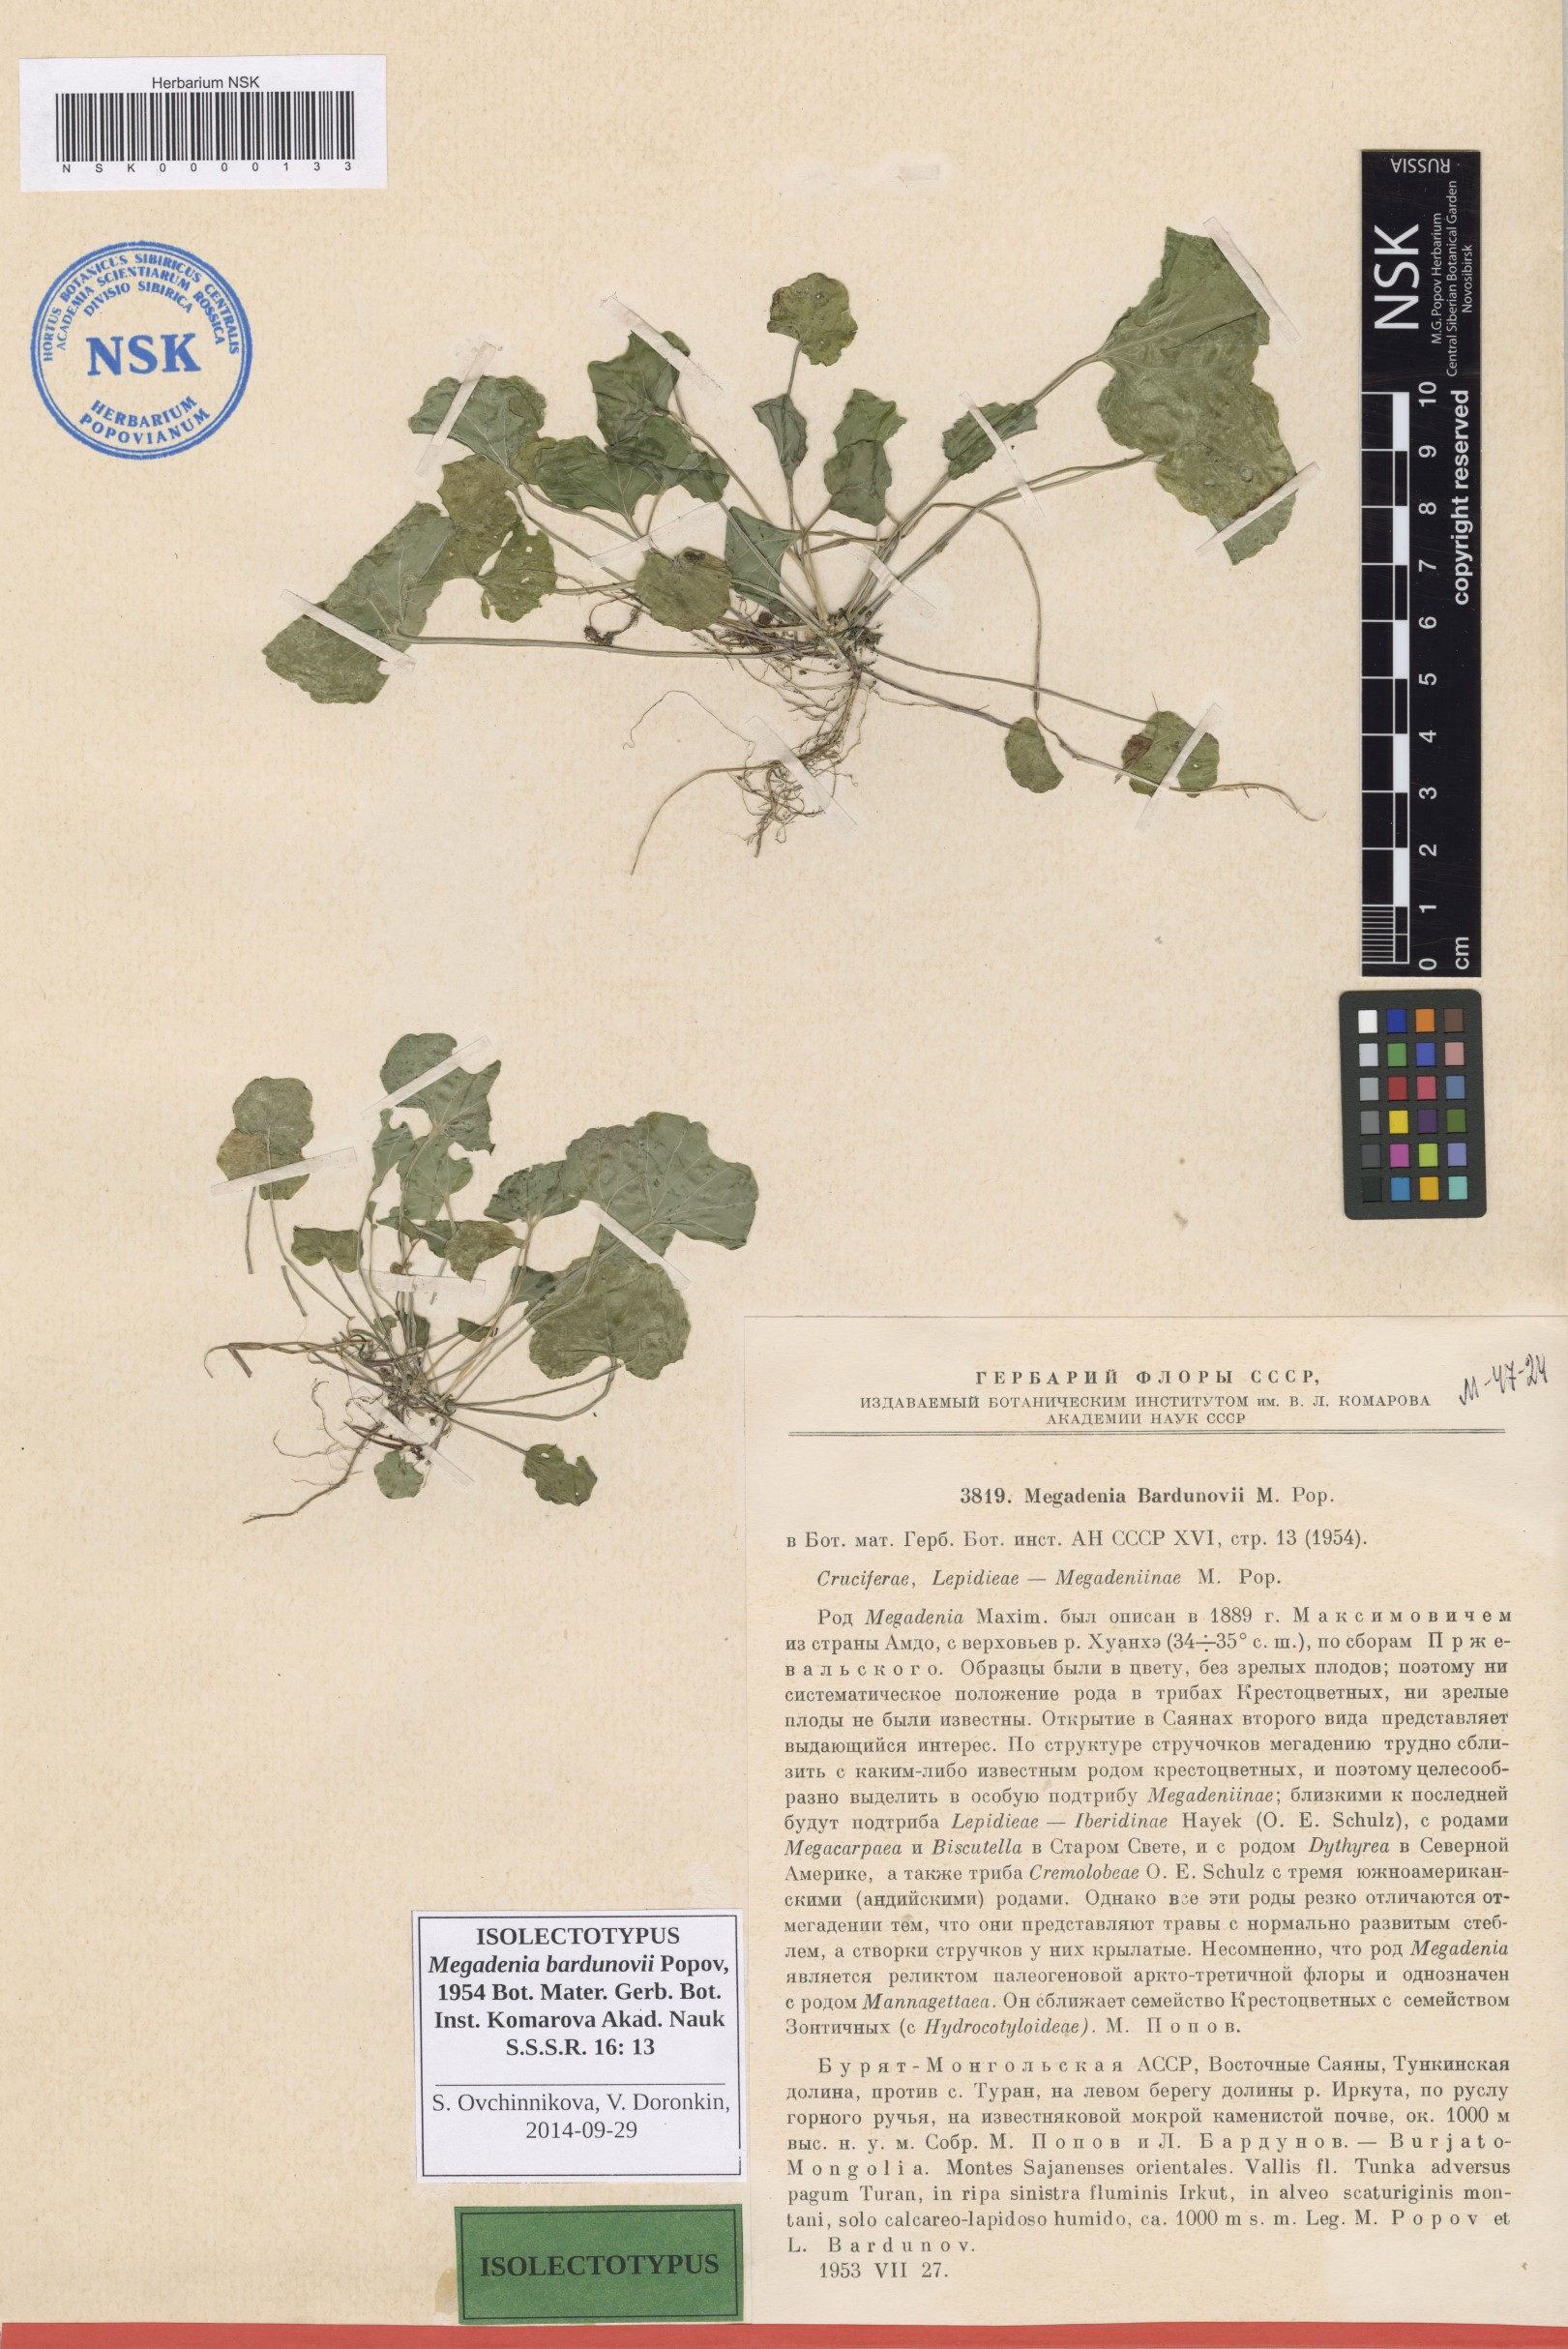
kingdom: Plantae
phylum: Tracheophyta
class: Magnoliopsida
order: Brassicales
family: Brassicaceae
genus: Megadenia
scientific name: Megadenia pygmaea
